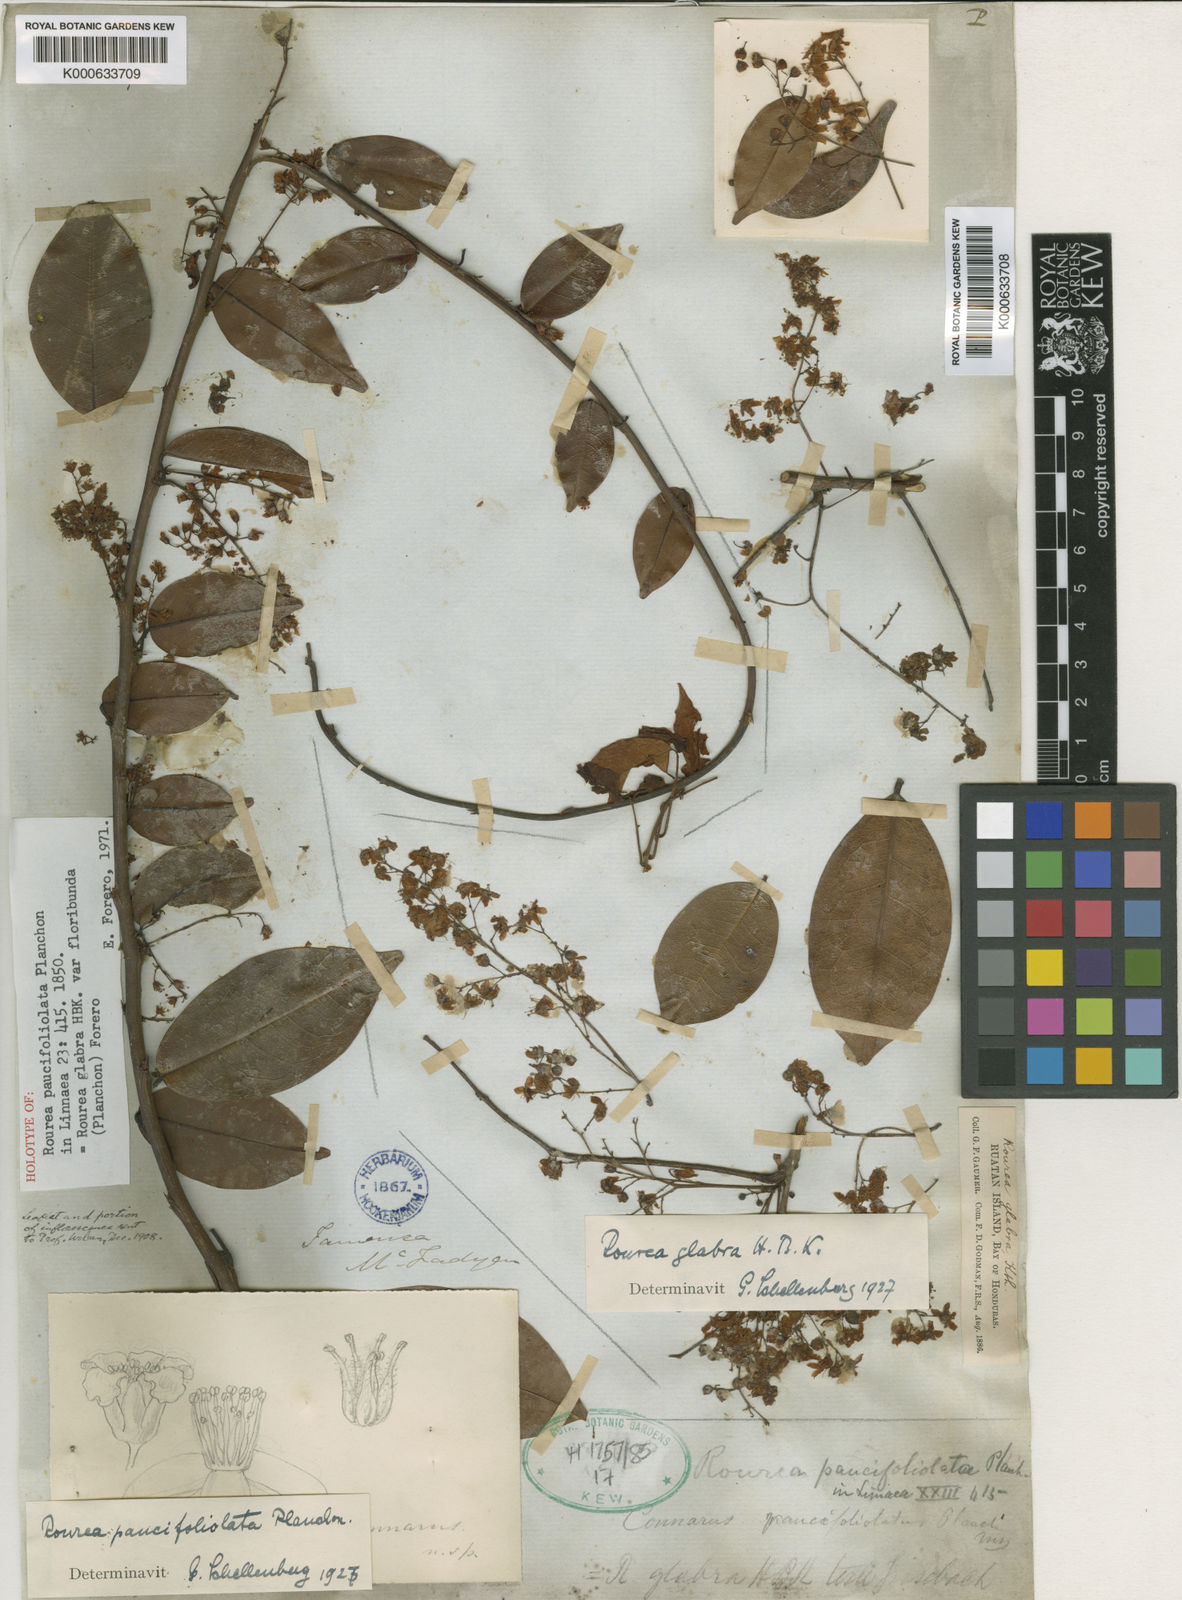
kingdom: Plantae
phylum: Tracheophyta
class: Magnoliopsida
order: Oxalidales
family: Connaraceae
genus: Rourea
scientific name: Rourea glabra
